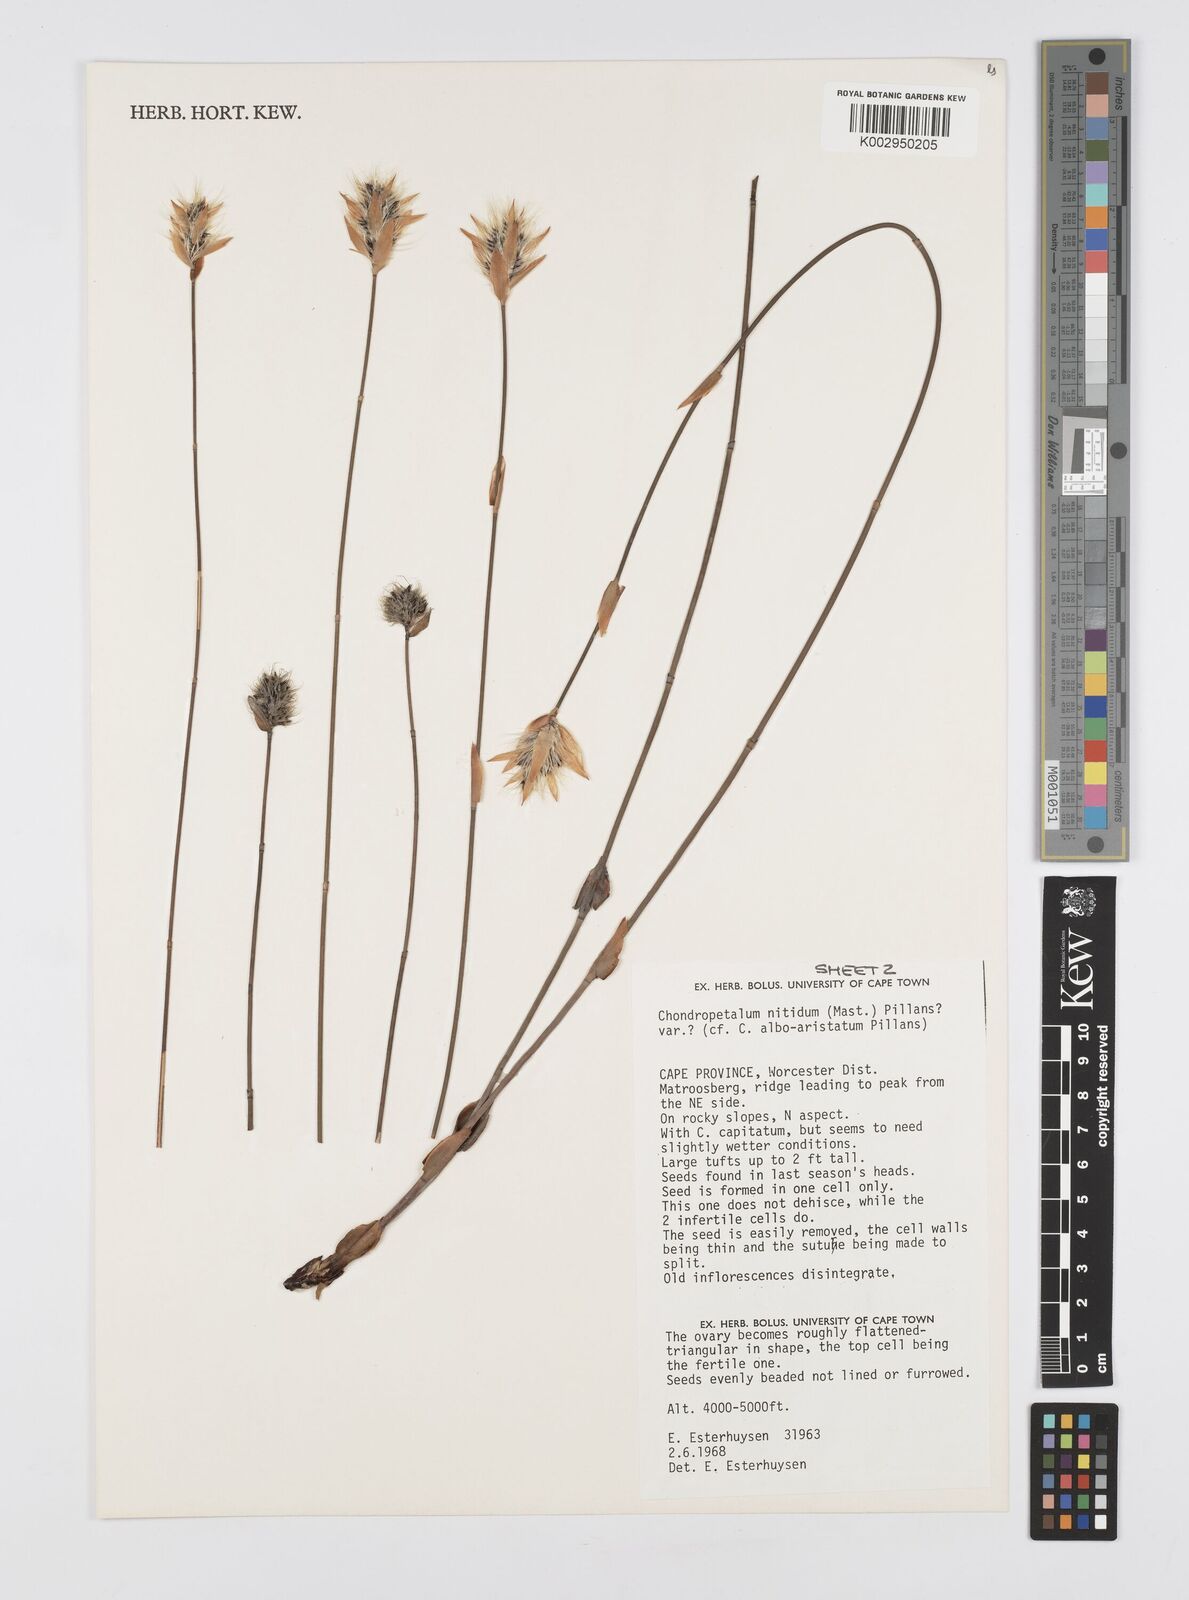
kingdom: Plantae
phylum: Tracheophyta
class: Liliopsida
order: Poales
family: Restionaceae
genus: Askidiosperma
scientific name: Askidiosperma nitidum
